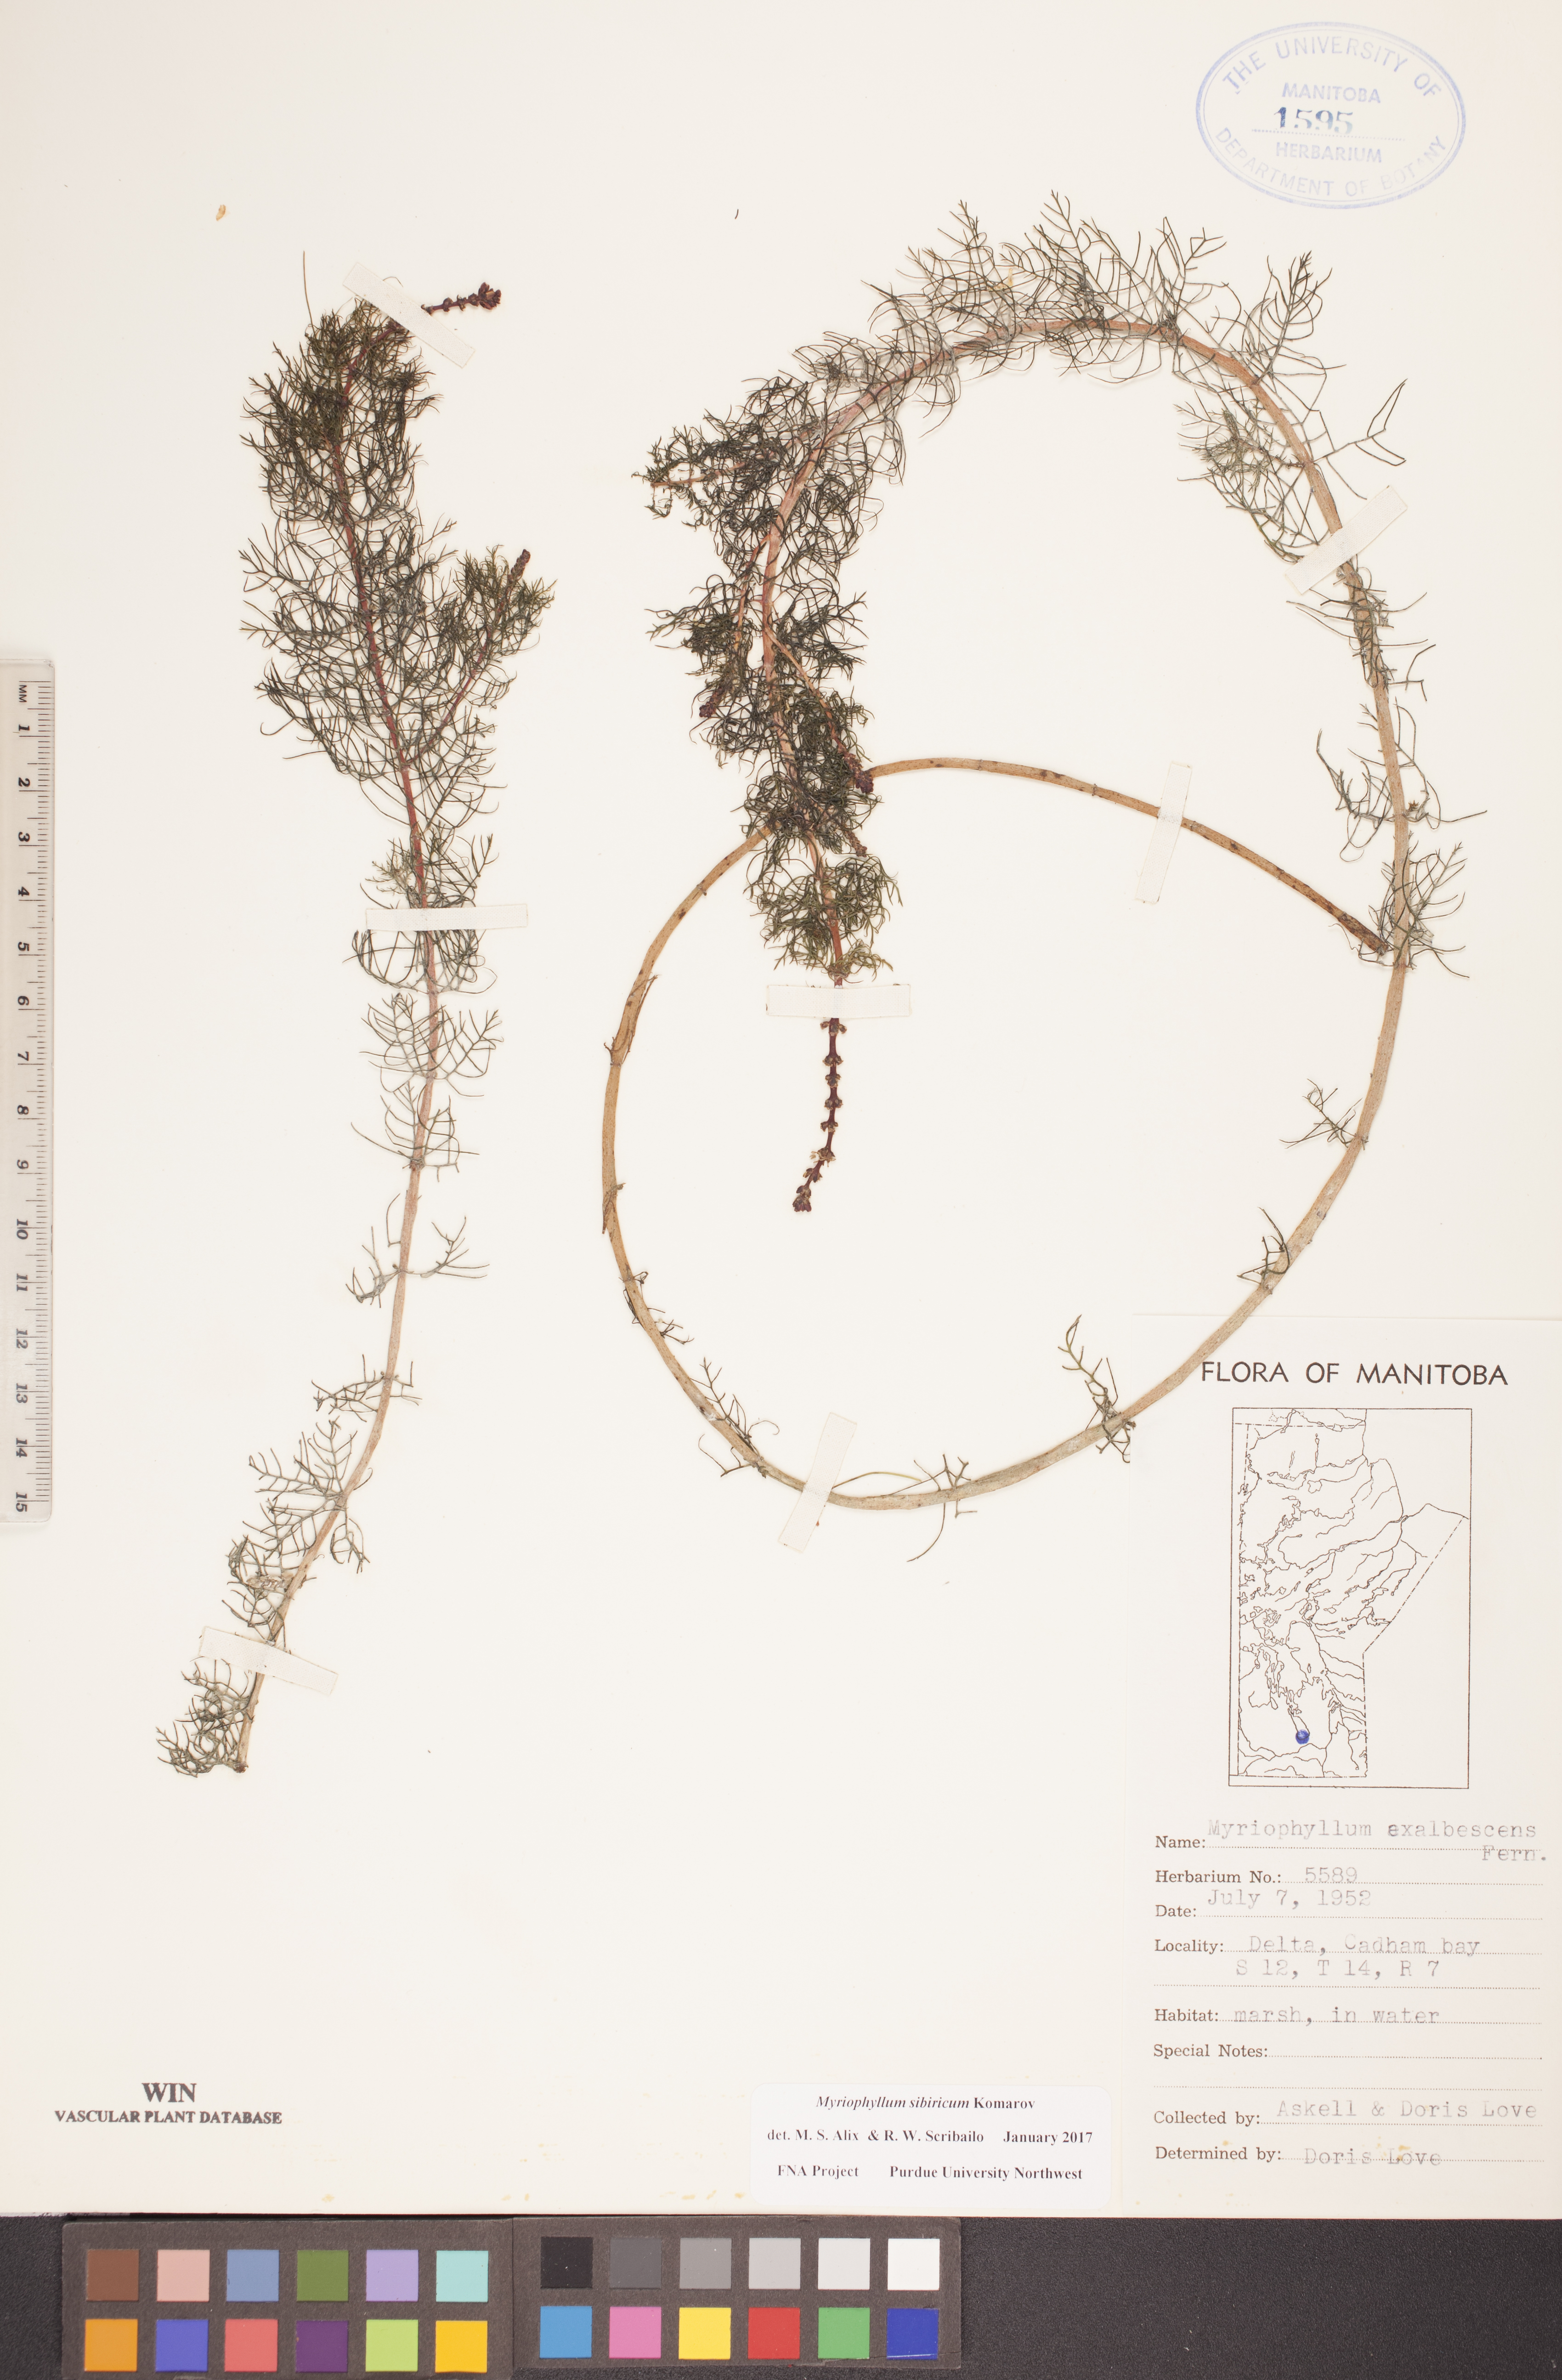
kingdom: Plantae
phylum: Tracheophyta
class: Magnoliopsida
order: Saxifragales
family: Haloragaceae
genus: Myriophyllum
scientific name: Myriophyllum sibiricum
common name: Siberian water-milfoil
